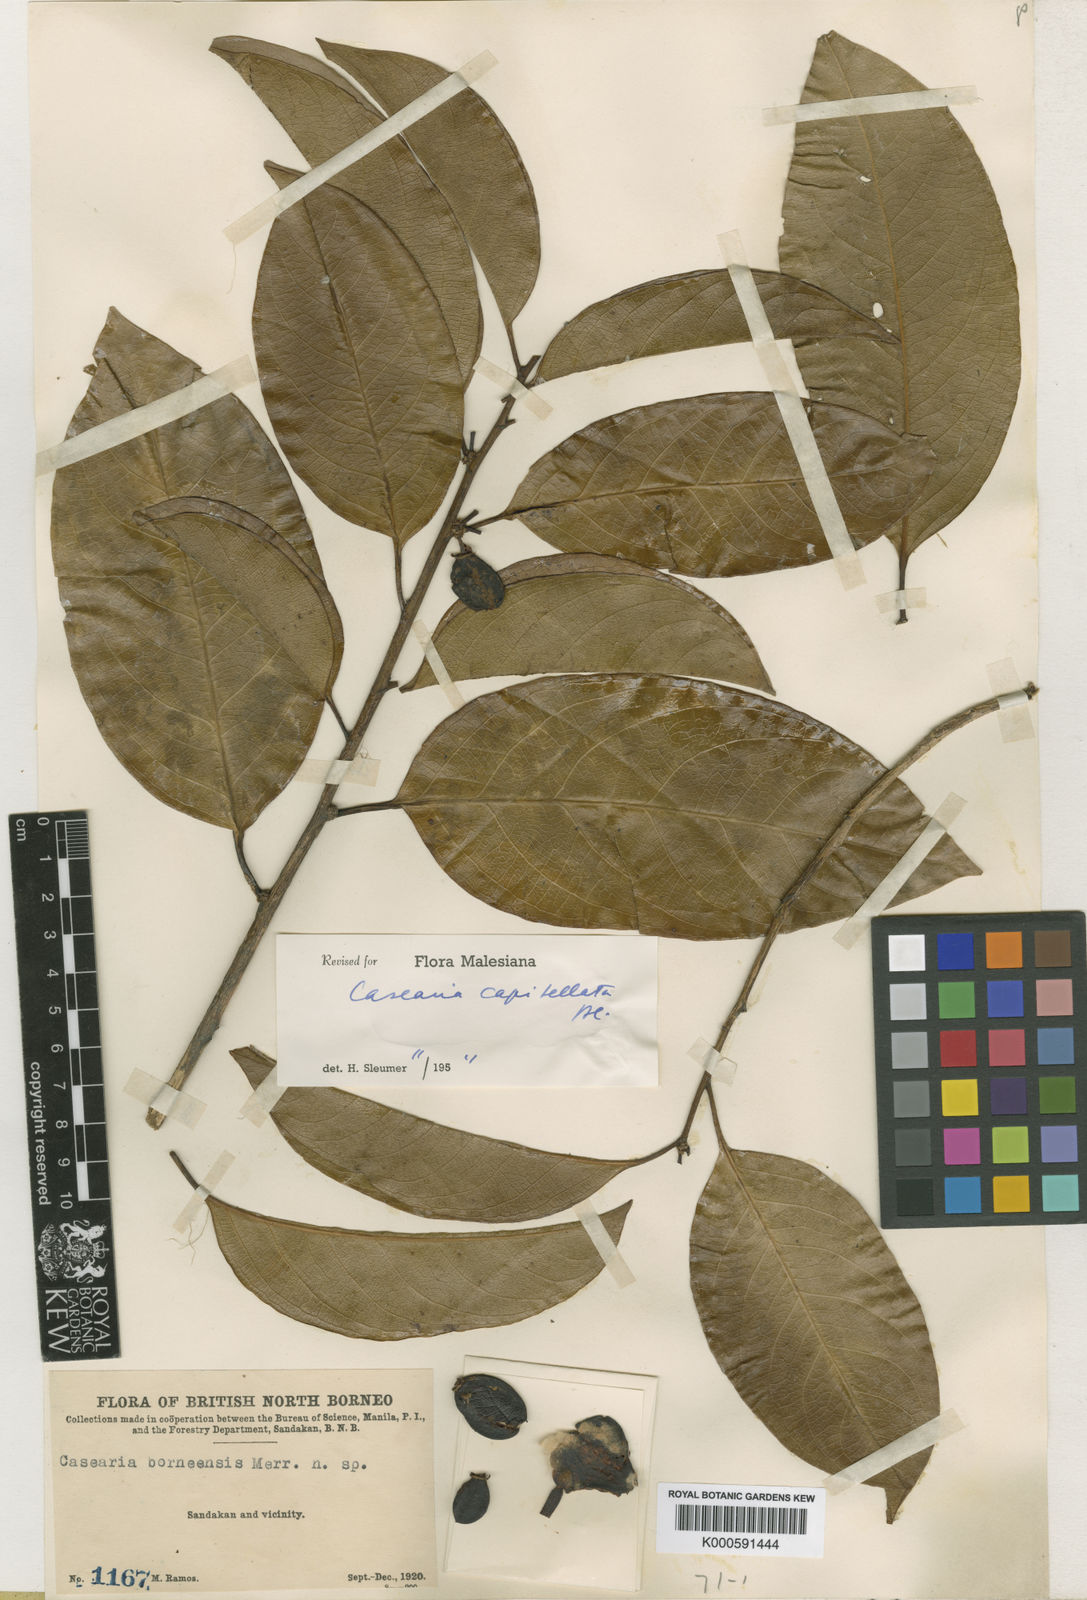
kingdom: Plantae
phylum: Tracheophyta
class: Magnoliopsida
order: Malpighiales
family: Salicaceae
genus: Casearia
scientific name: Casearia capitellata
